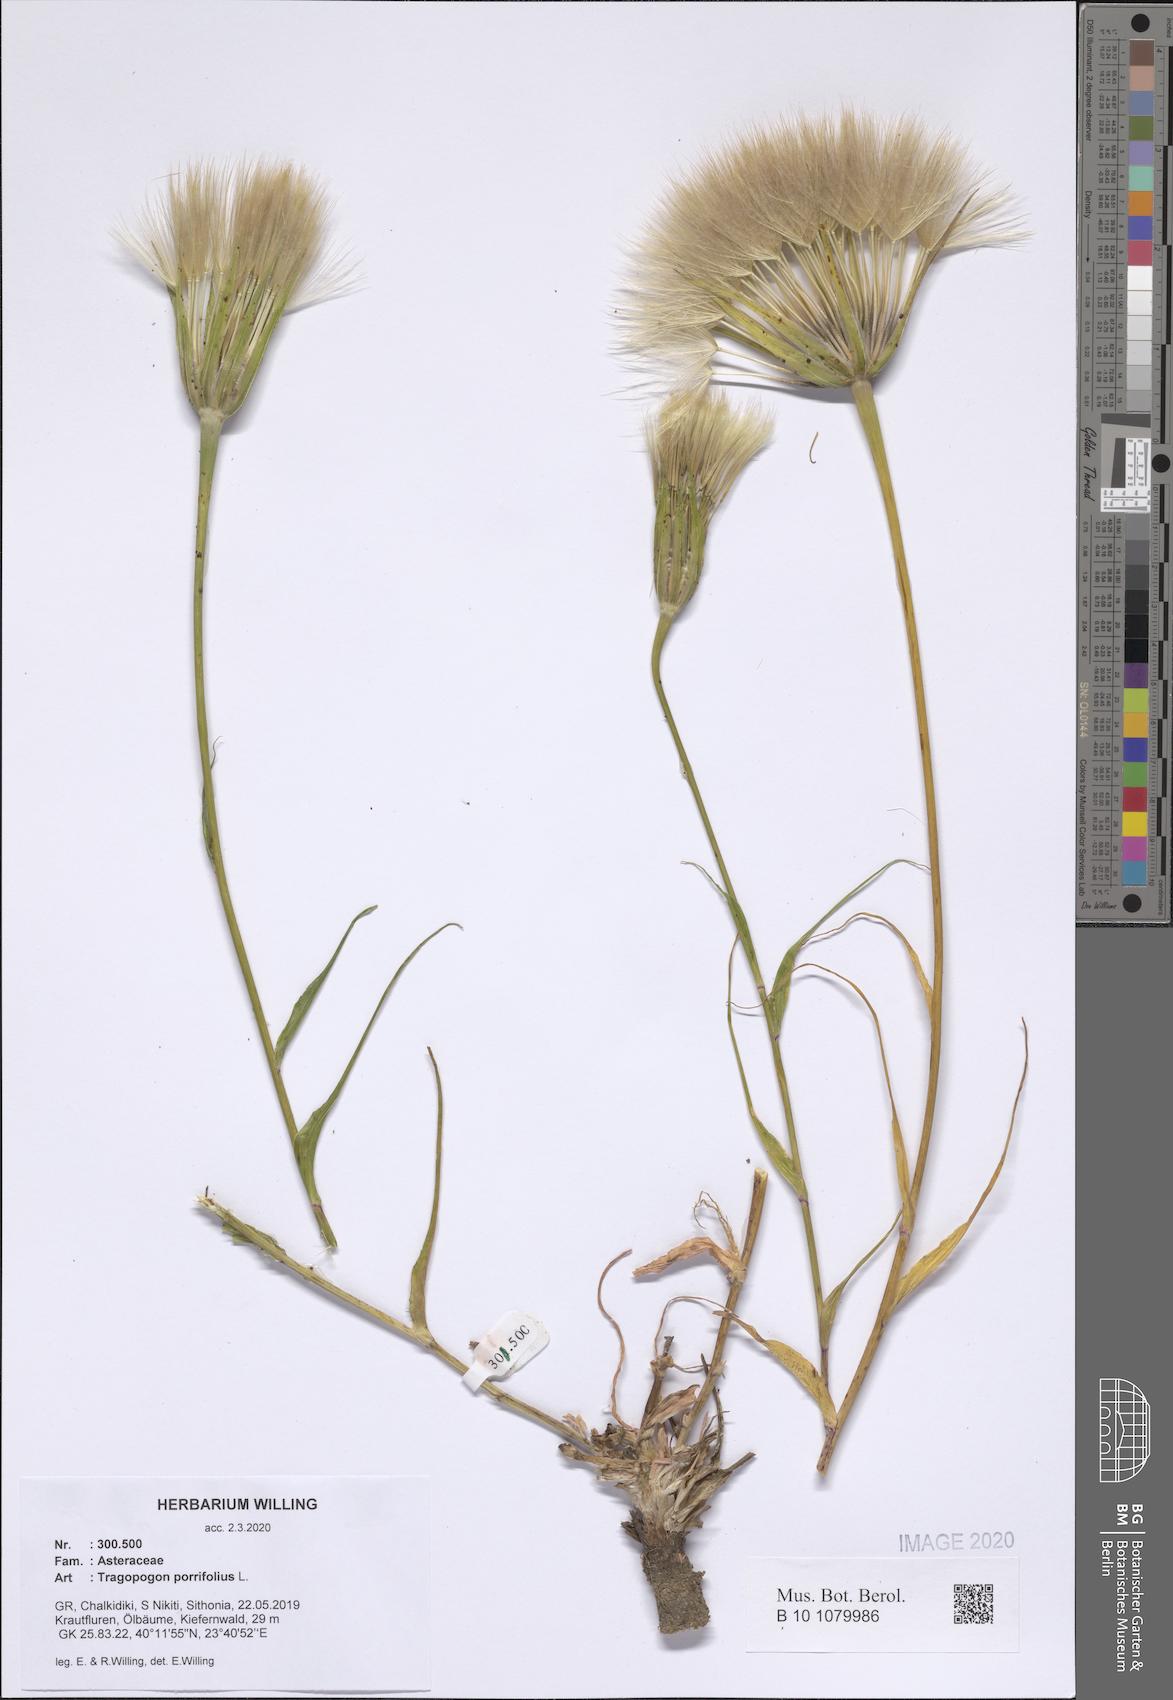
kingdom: Plantae
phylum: Tracheophyta
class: Magnoliopsida
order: Asterales
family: Asteraceae
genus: Tragopogon
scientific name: Tragopogon porrifolius
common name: Salsify
